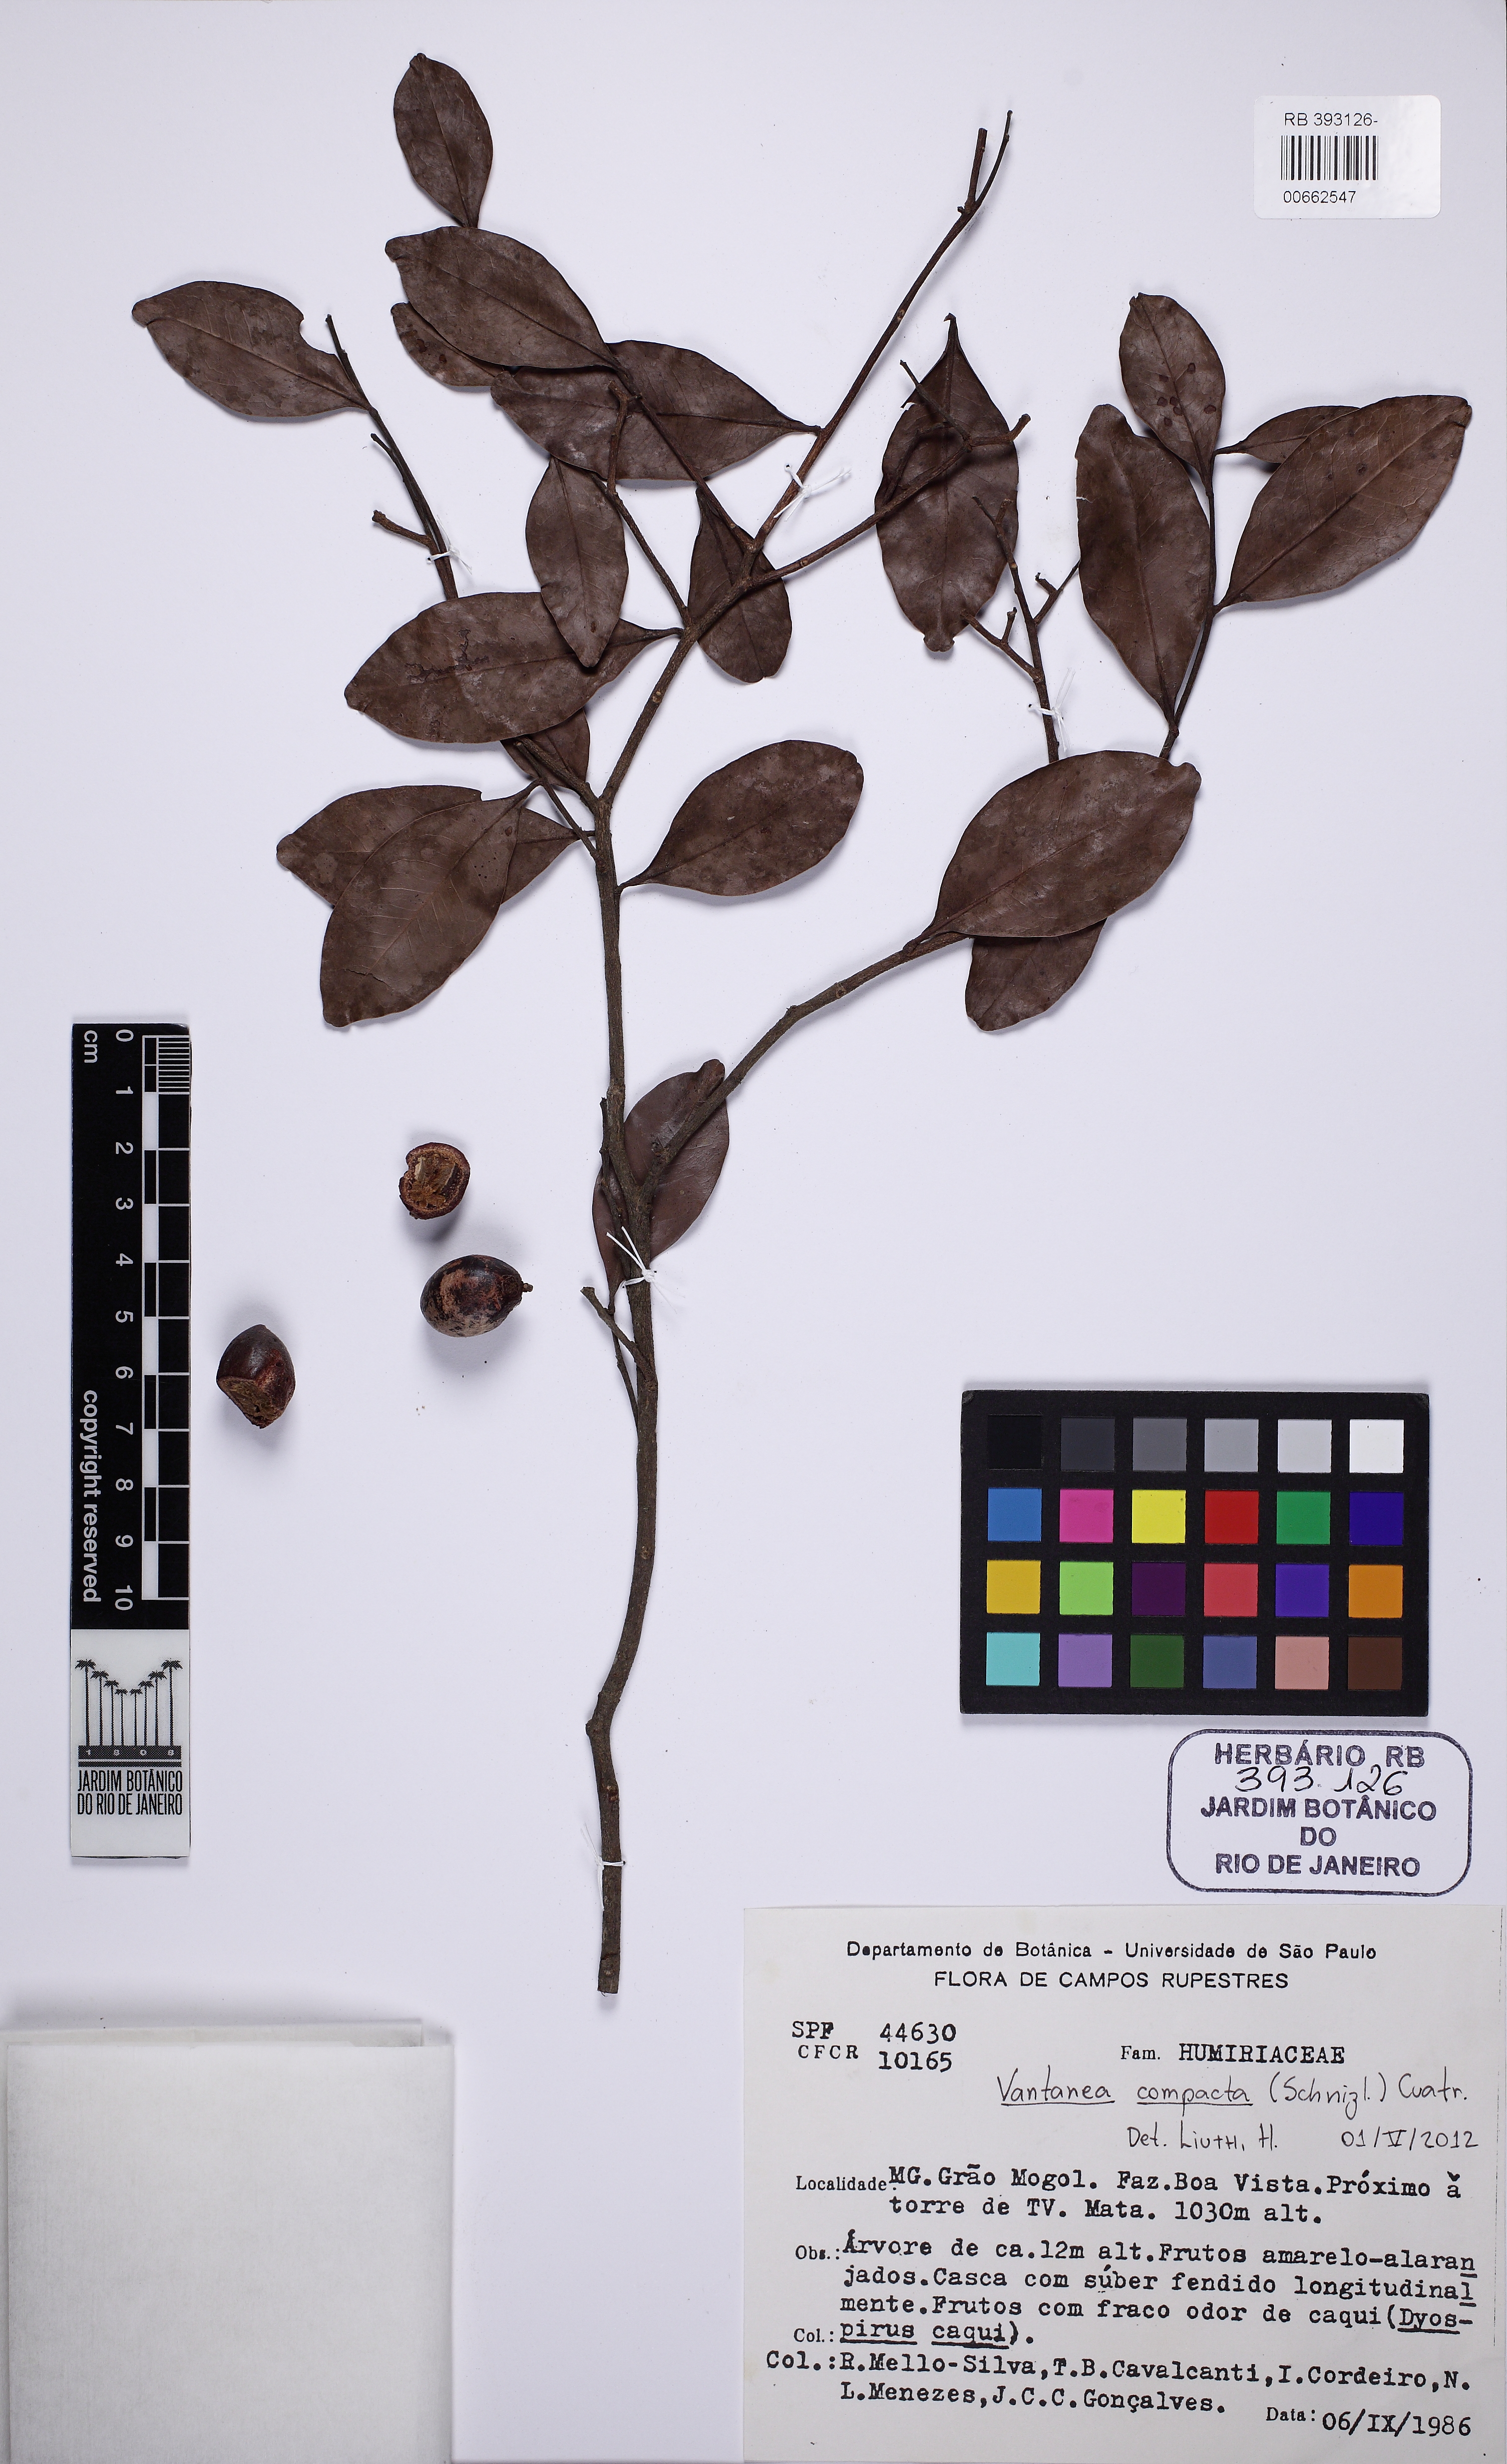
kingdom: Plantae
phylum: Tracheophyta
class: Magnoliopsida
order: Malpighiales
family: Humiriaceae
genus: Vantanea
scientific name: Vantanea compacta
